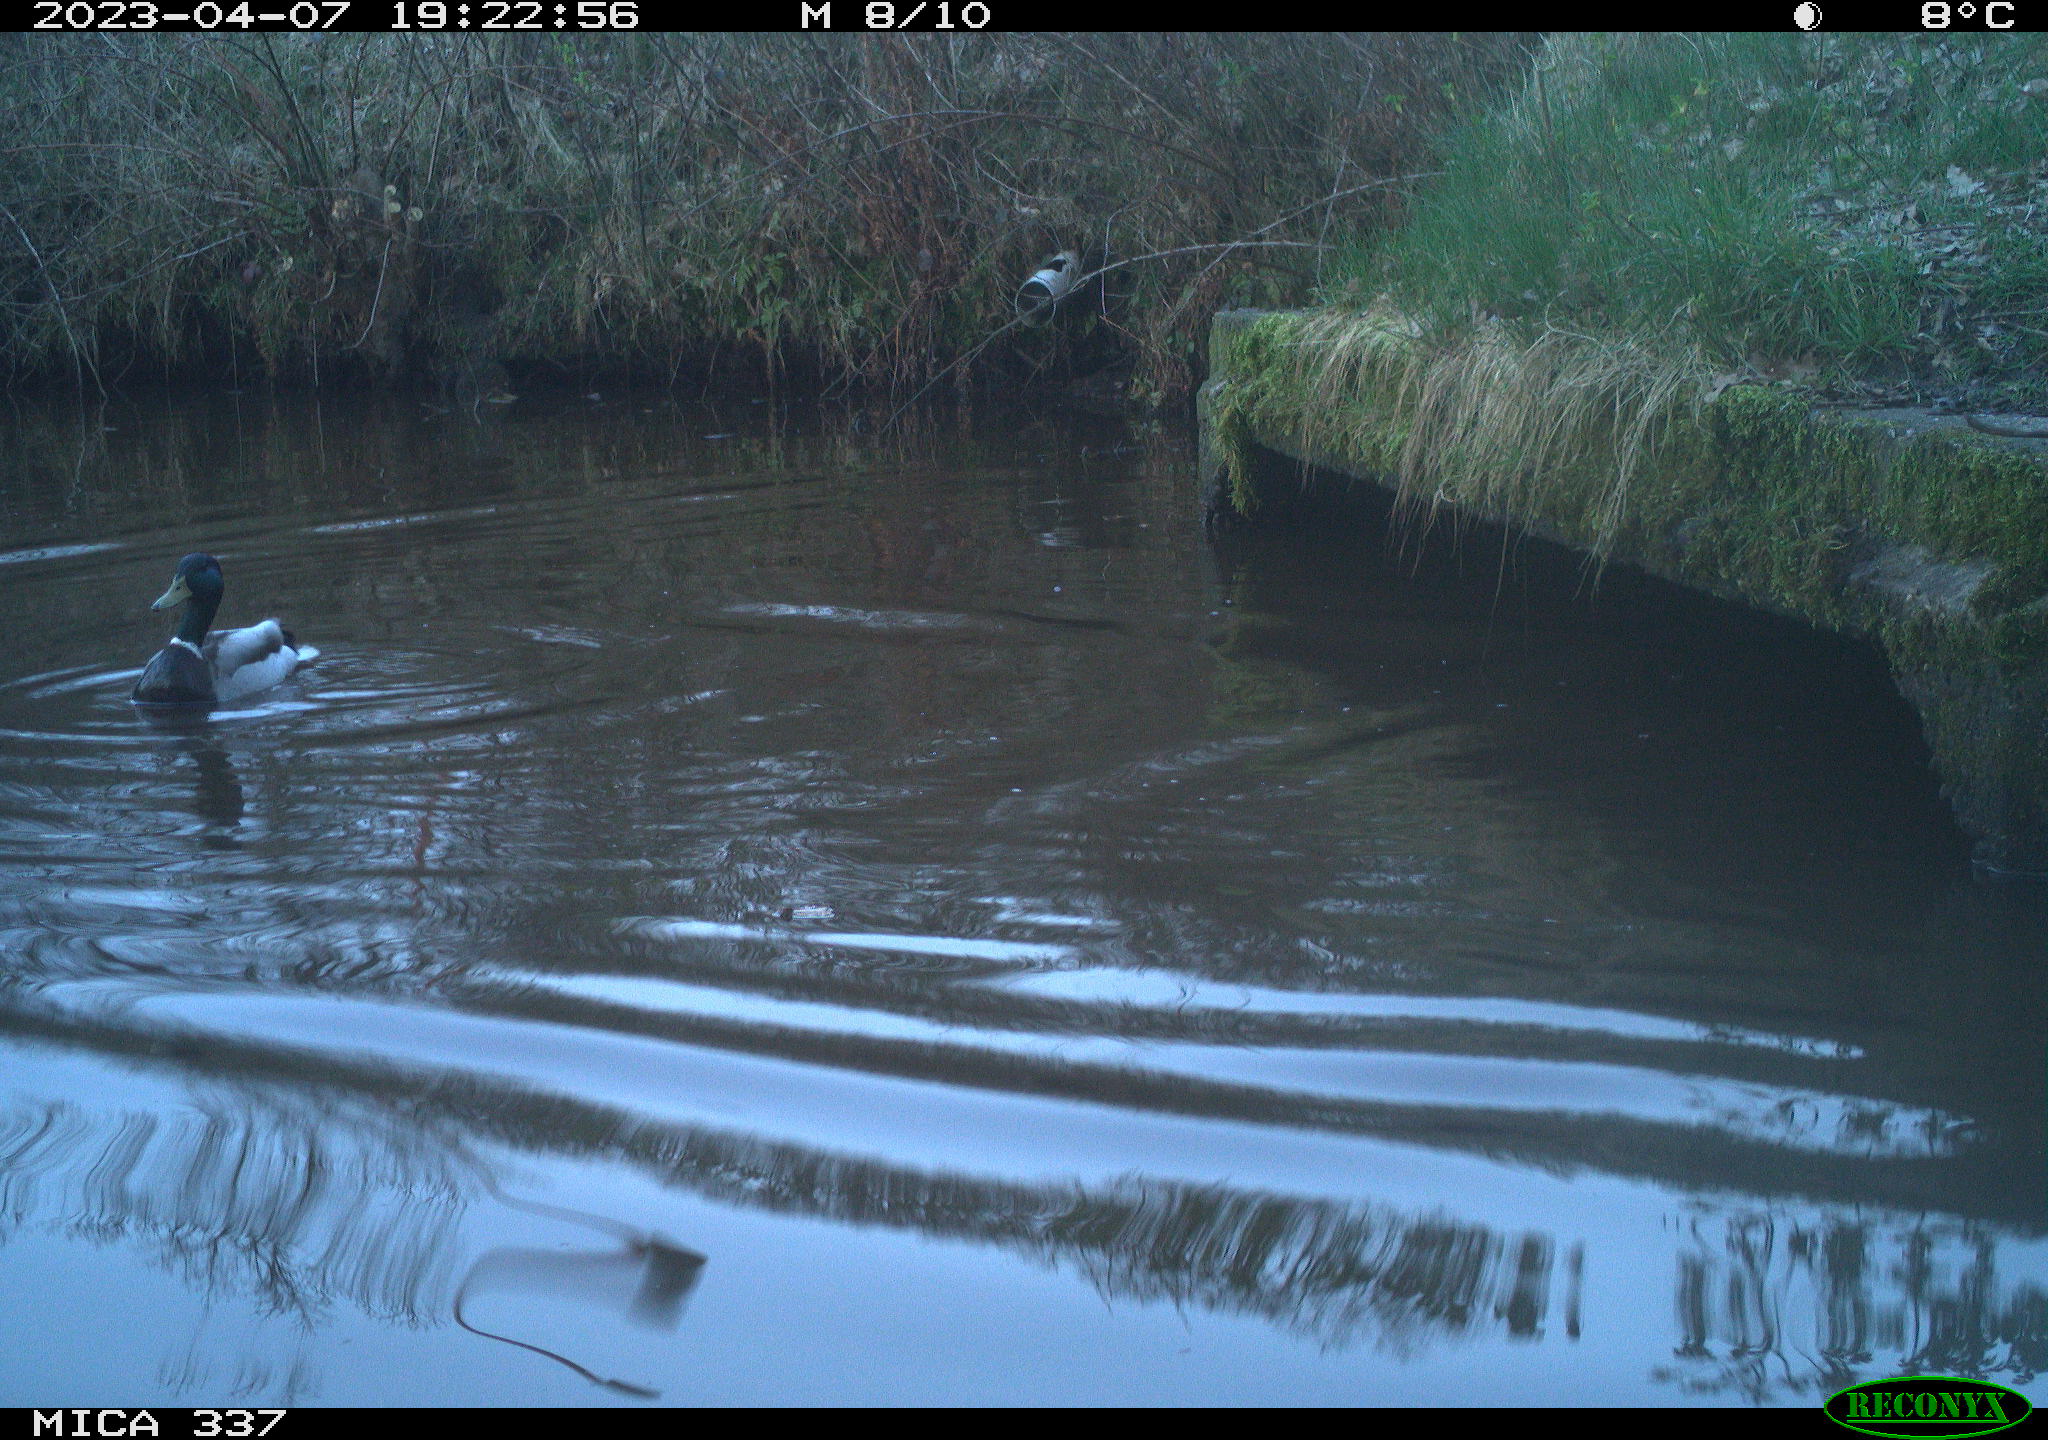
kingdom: Animalia
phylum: Chordata
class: Aves
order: Anseriformes
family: Anatidae
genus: Anas
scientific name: Anas
